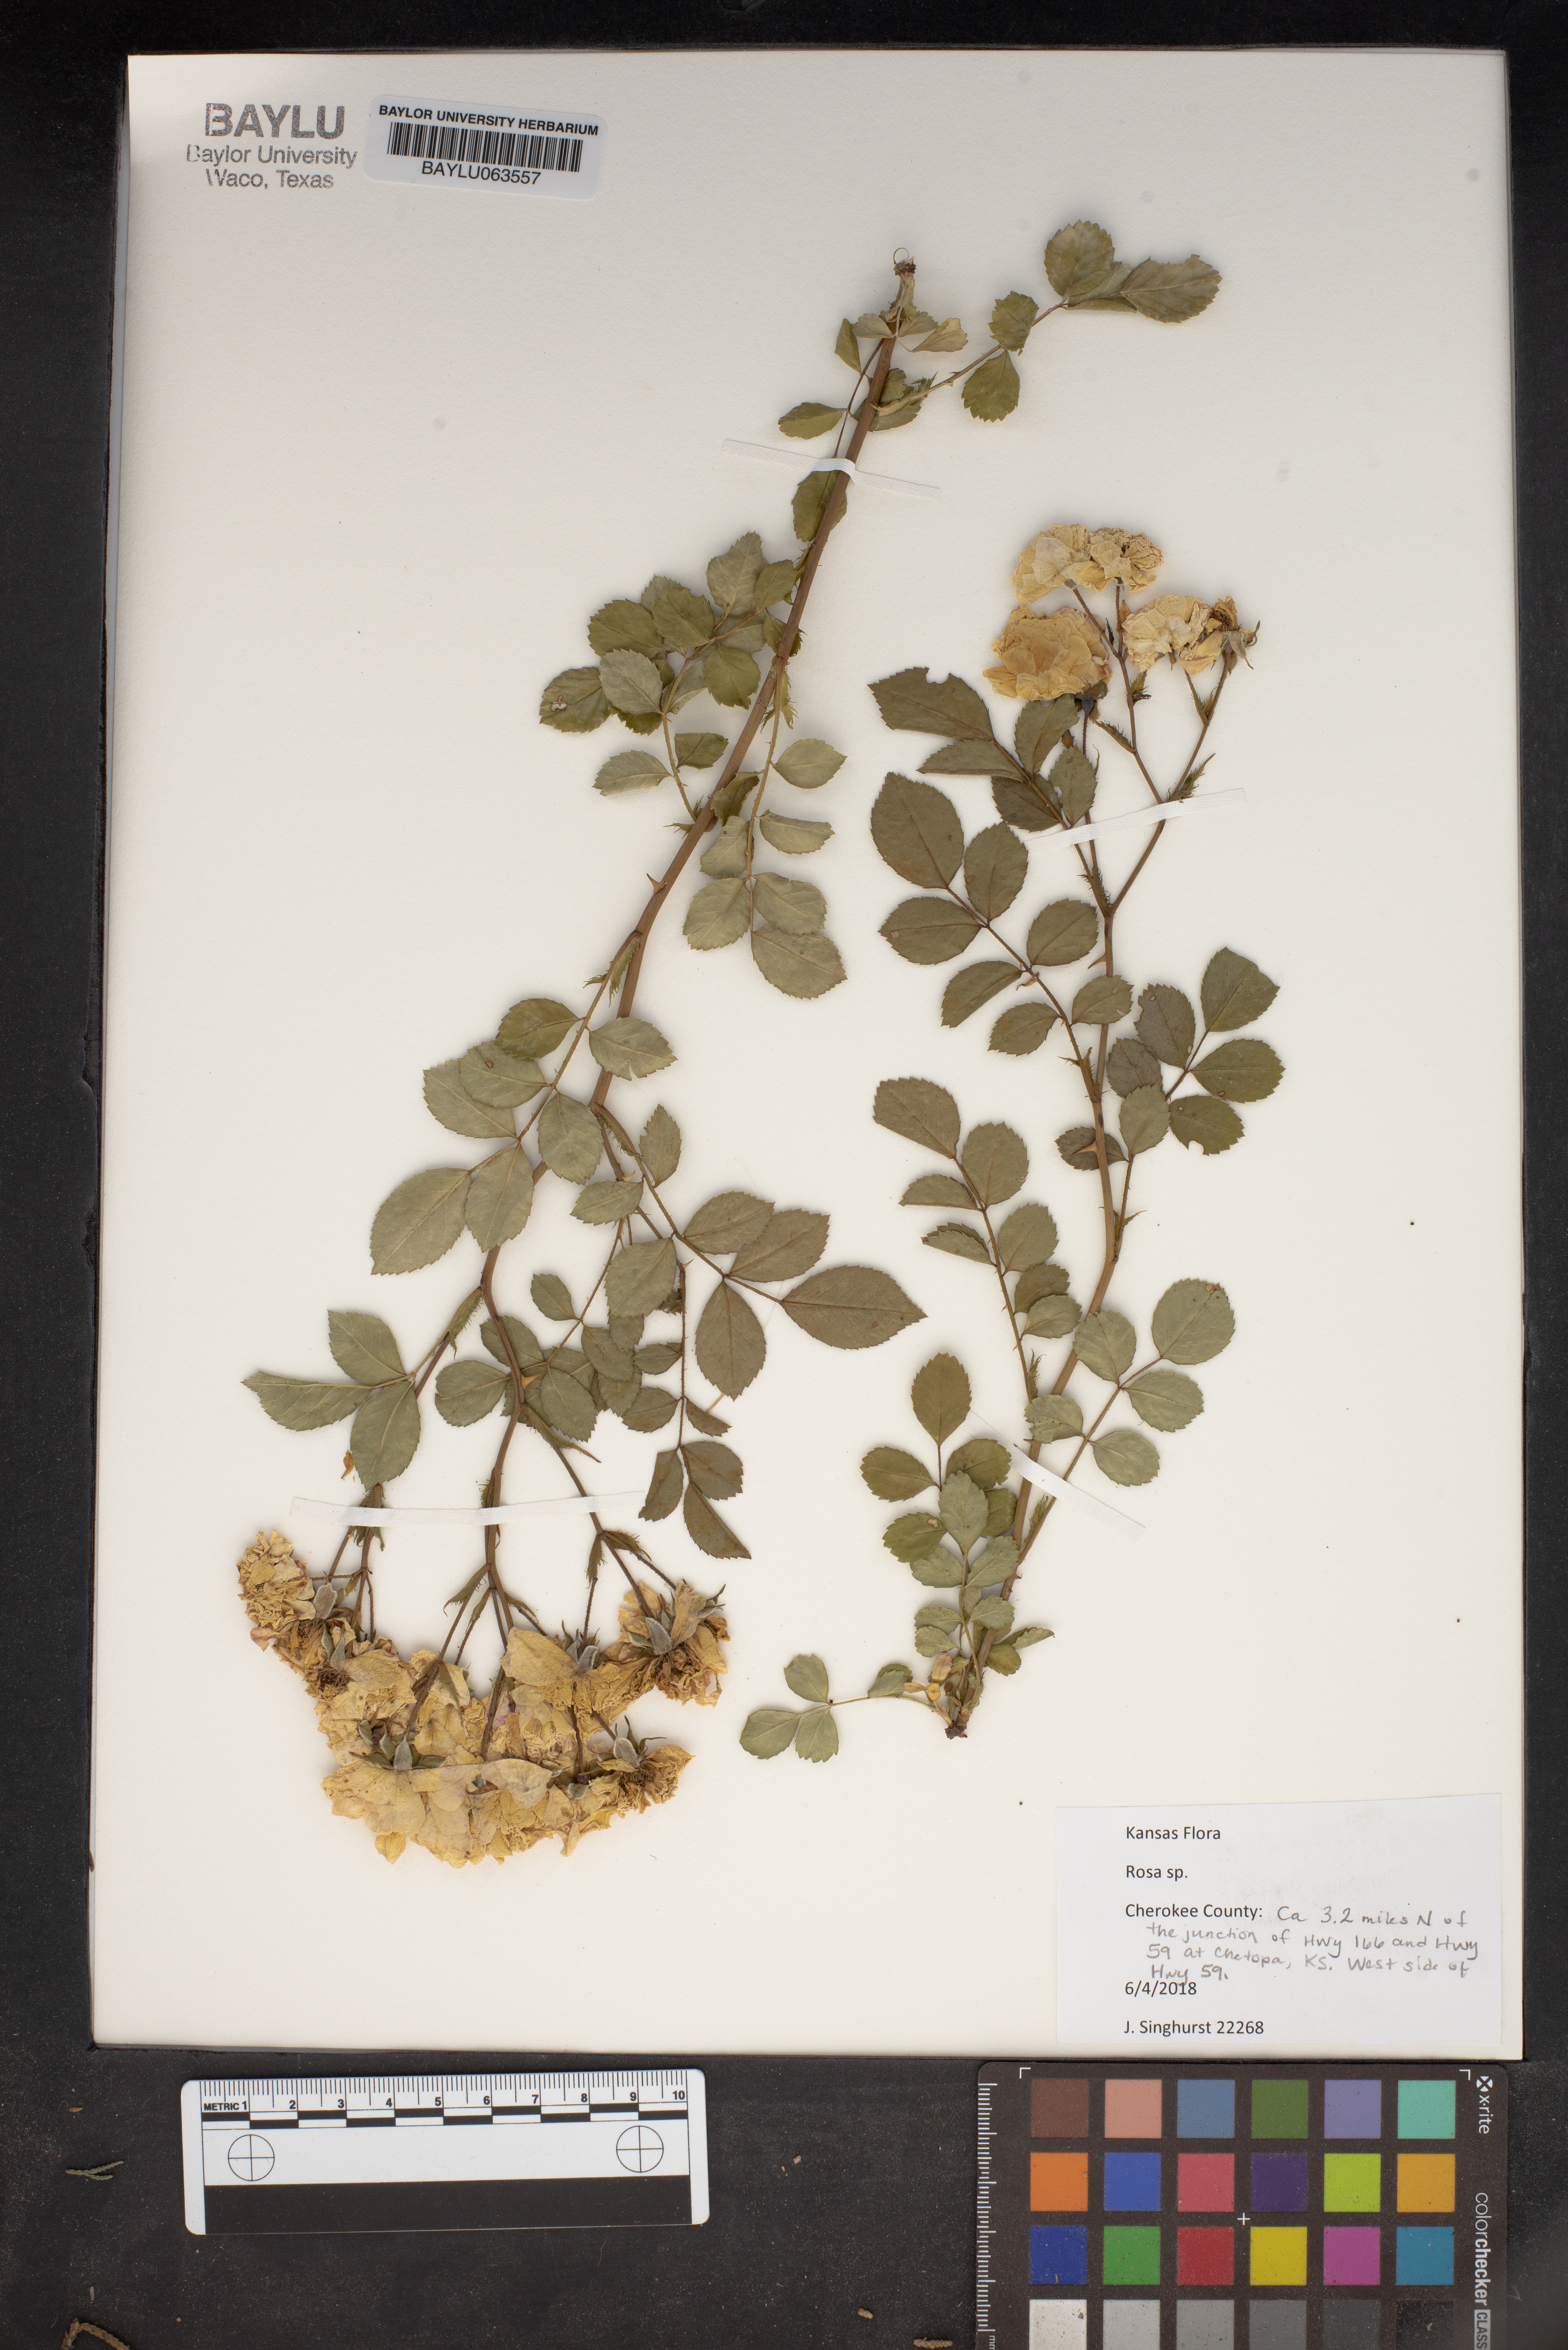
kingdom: Plantae
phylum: Tracheophyta
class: Magnoliopsida
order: Rosales
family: Rosaceae
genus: Rosa
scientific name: Rosa
